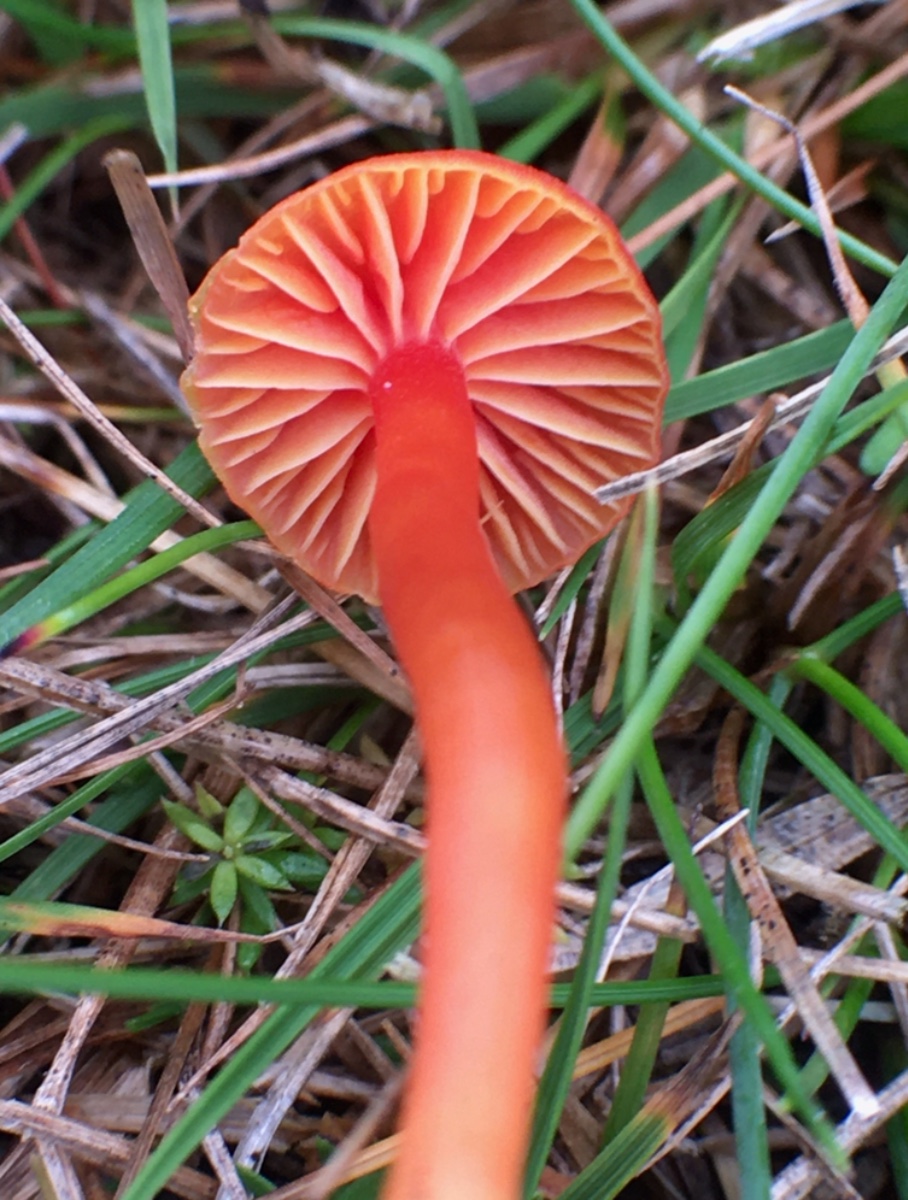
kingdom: Fungi
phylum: Basidiomycota
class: Agaricomycetes
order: Agaricales
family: Hygrophoraceae
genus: Hygrocybe
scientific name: Hygrocybe phaeococcinea
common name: sortdugget vokshat
